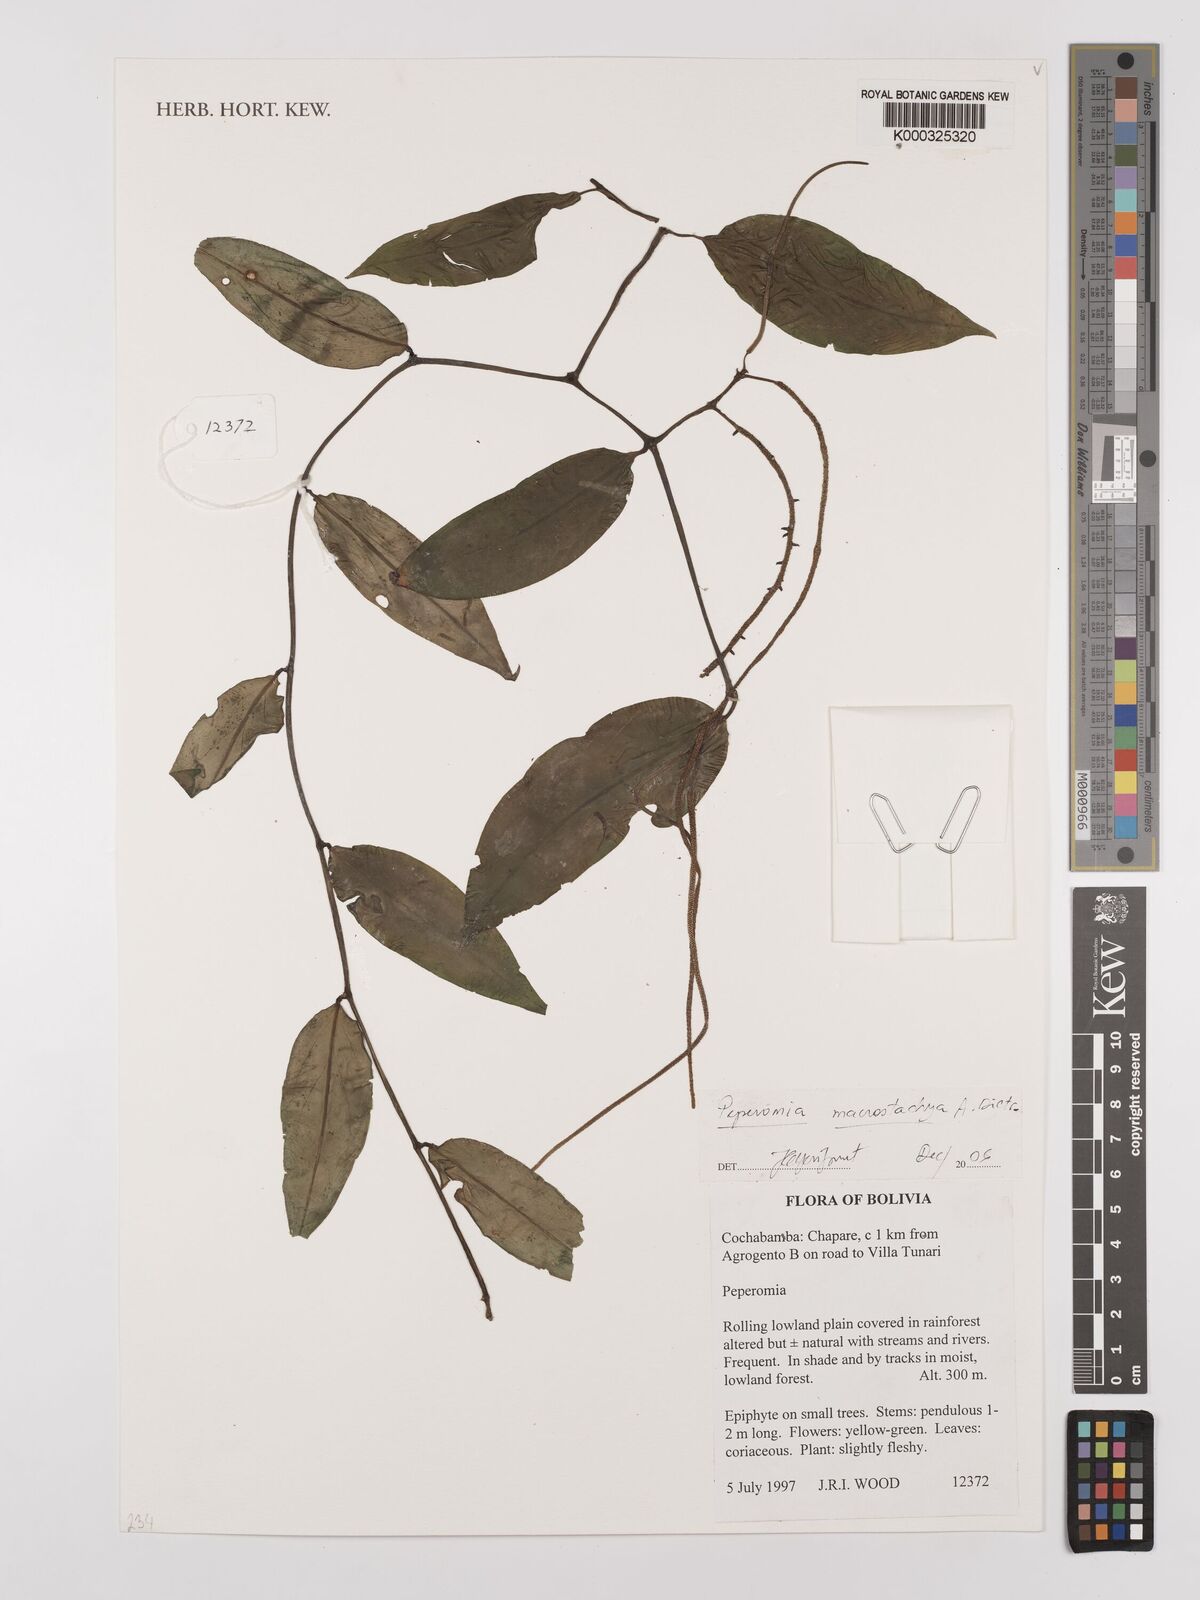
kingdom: Plantae
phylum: Tracheophyta
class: Magnoliopsida
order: Piperales
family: Piperaceae
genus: Peperomia
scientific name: Peperomia
